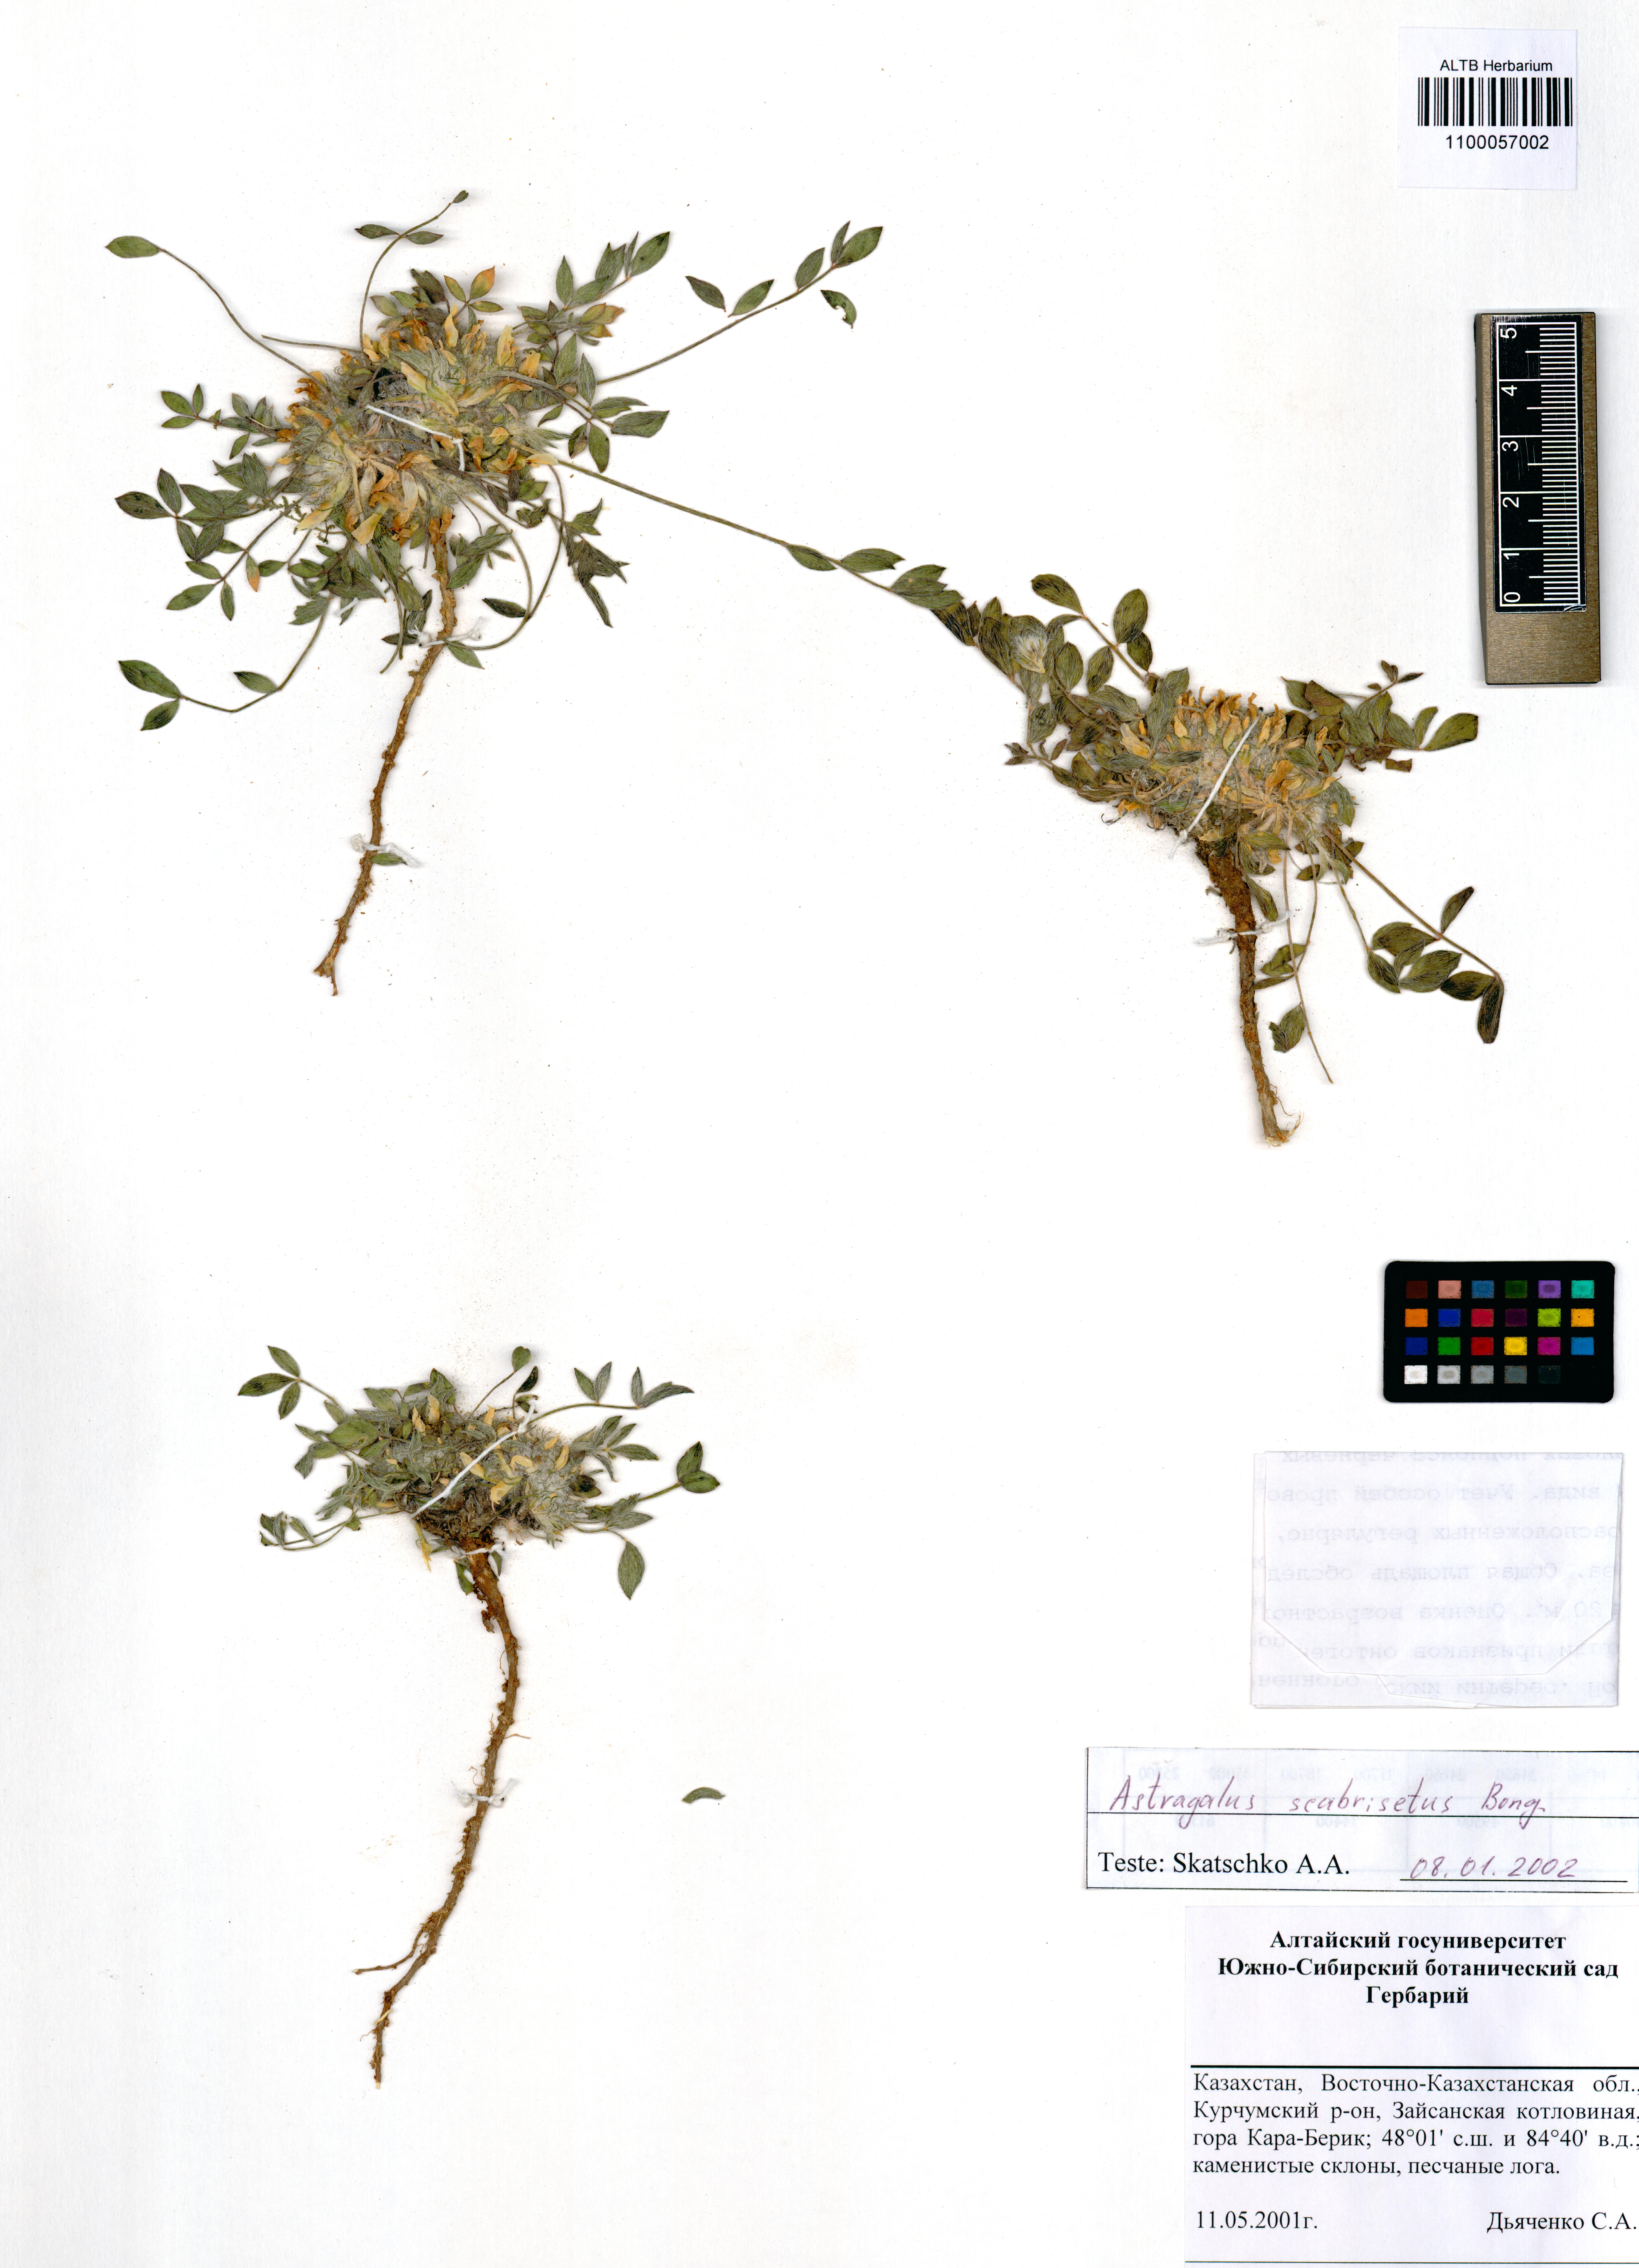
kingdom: Plantae
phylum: Tracheophyta
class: Magnoliopsida
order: Fabales
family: Fabaceae
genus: Astragalus
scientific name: Astragalus scabrisetus
